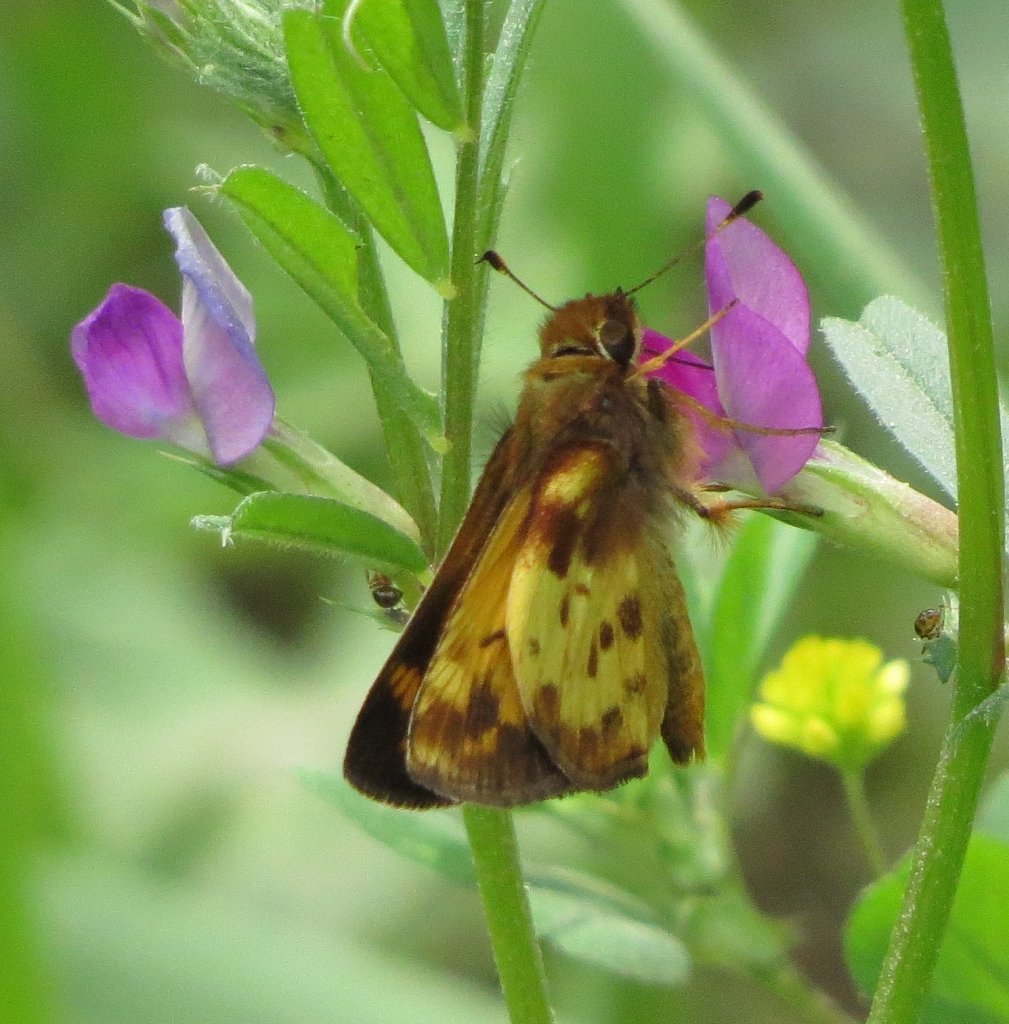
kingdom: Animalia
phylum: Arthropoda
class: Insecta
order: Lepidoptera
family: Hesperiidae
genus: Lon
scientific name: Lon zabulon
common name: Zabulon Skipper
